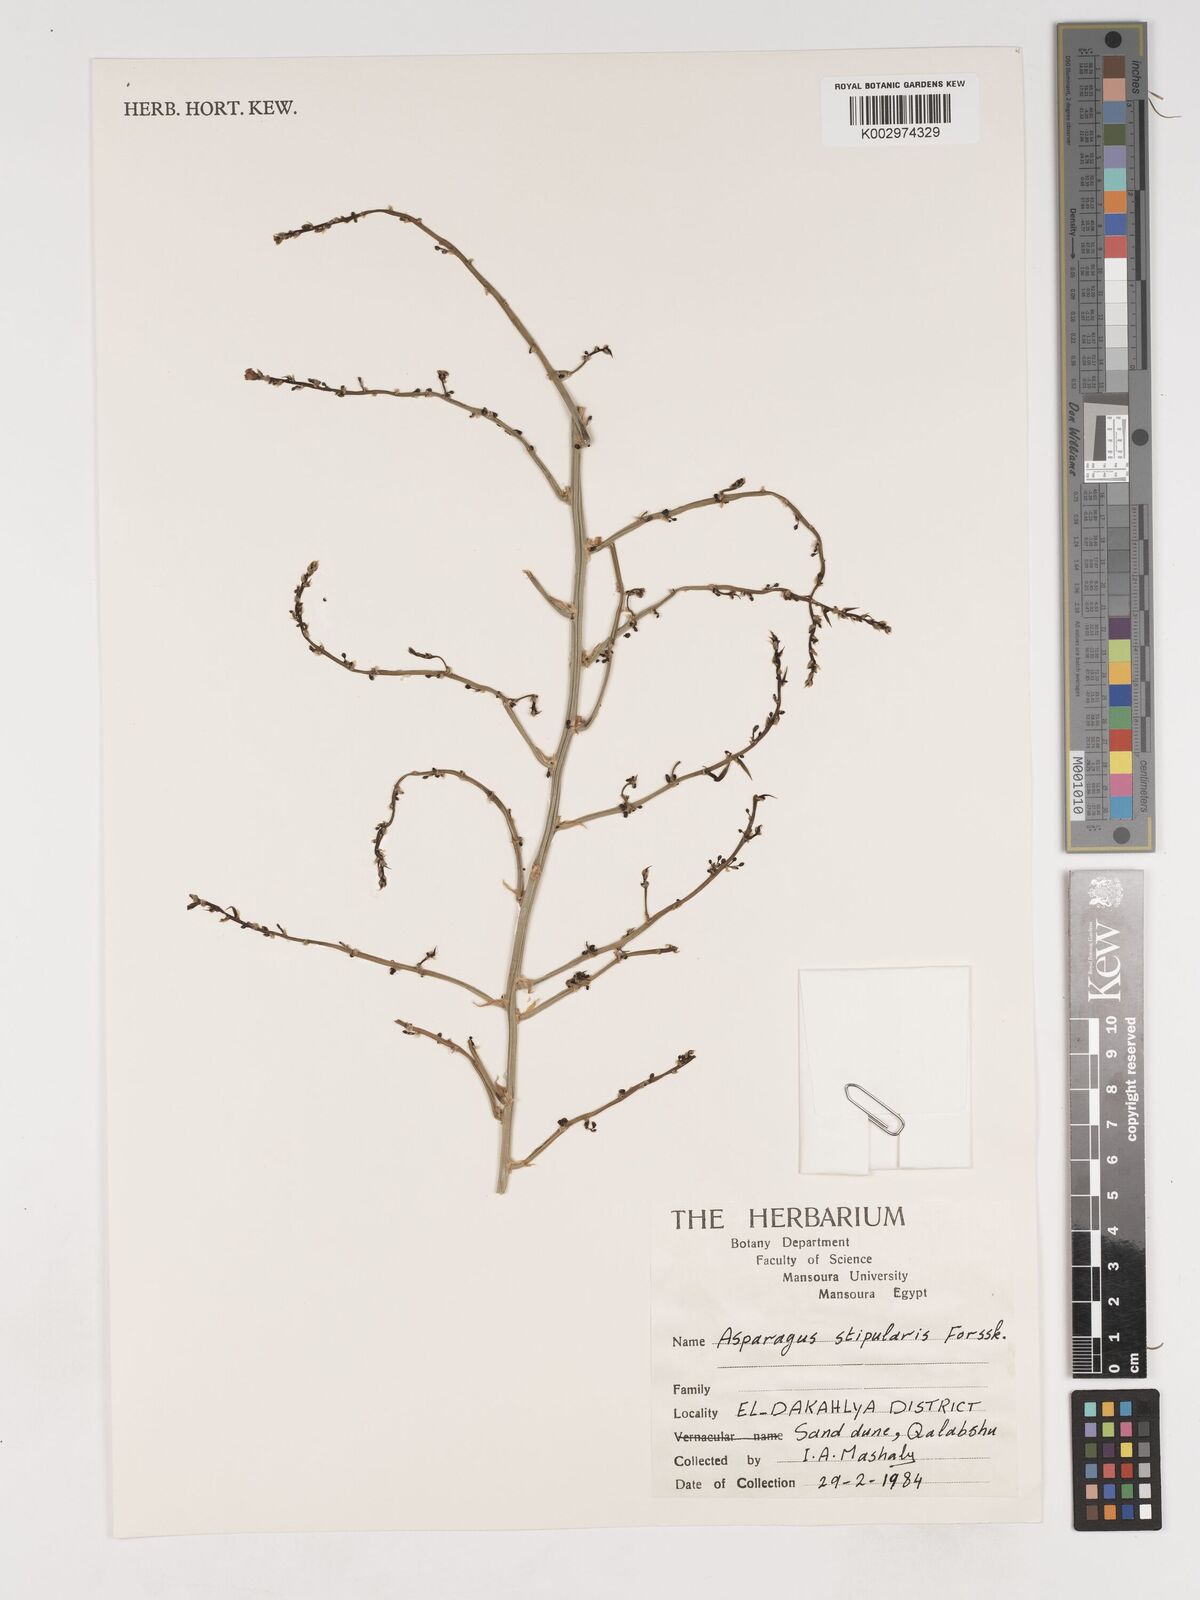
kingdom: Plantae
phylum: Tracheophyta
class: Liliopsida
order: Asparagales
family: Asparagaceae
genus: Asparagus
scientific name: Asparagus aphyllus
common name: Mediterranean asparagus
